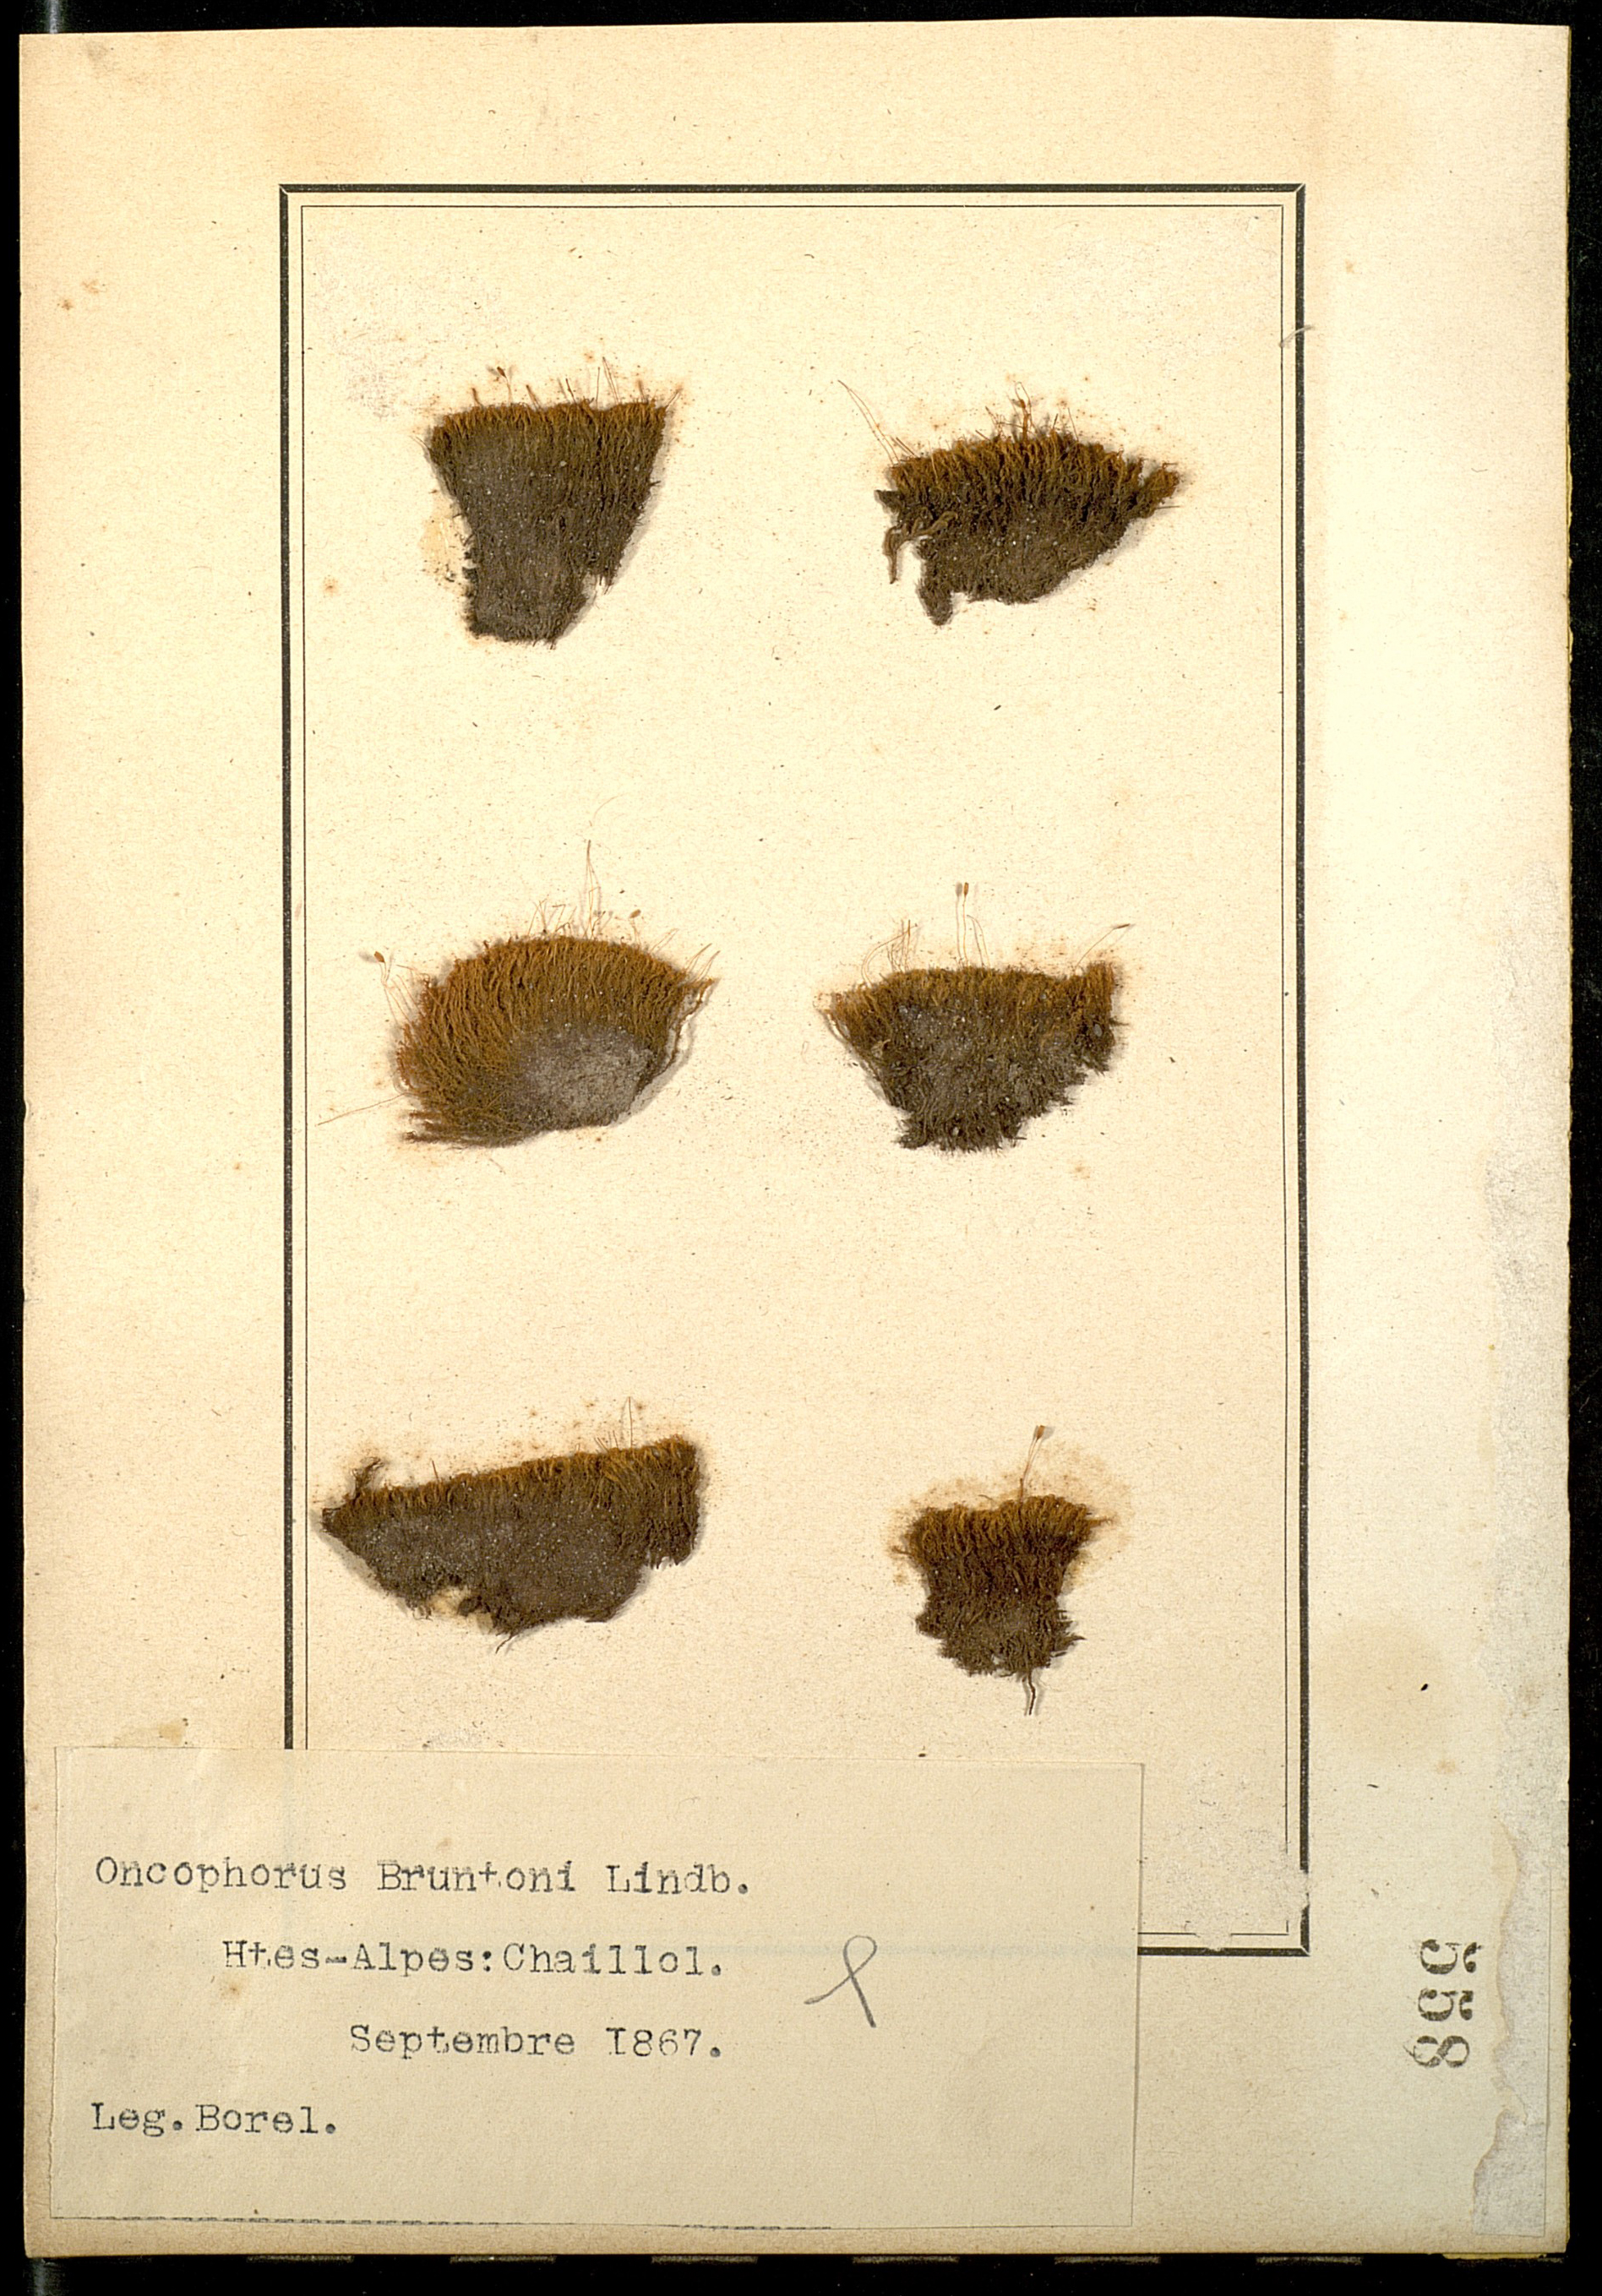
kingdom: Plantae
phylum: Bryophyta
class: Bryopsida
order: Dicranales
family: Rhabdoweisiaceae
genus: Cynodontium
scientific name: Cynodontium bruntonii
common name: Brunton's dog-tooth
